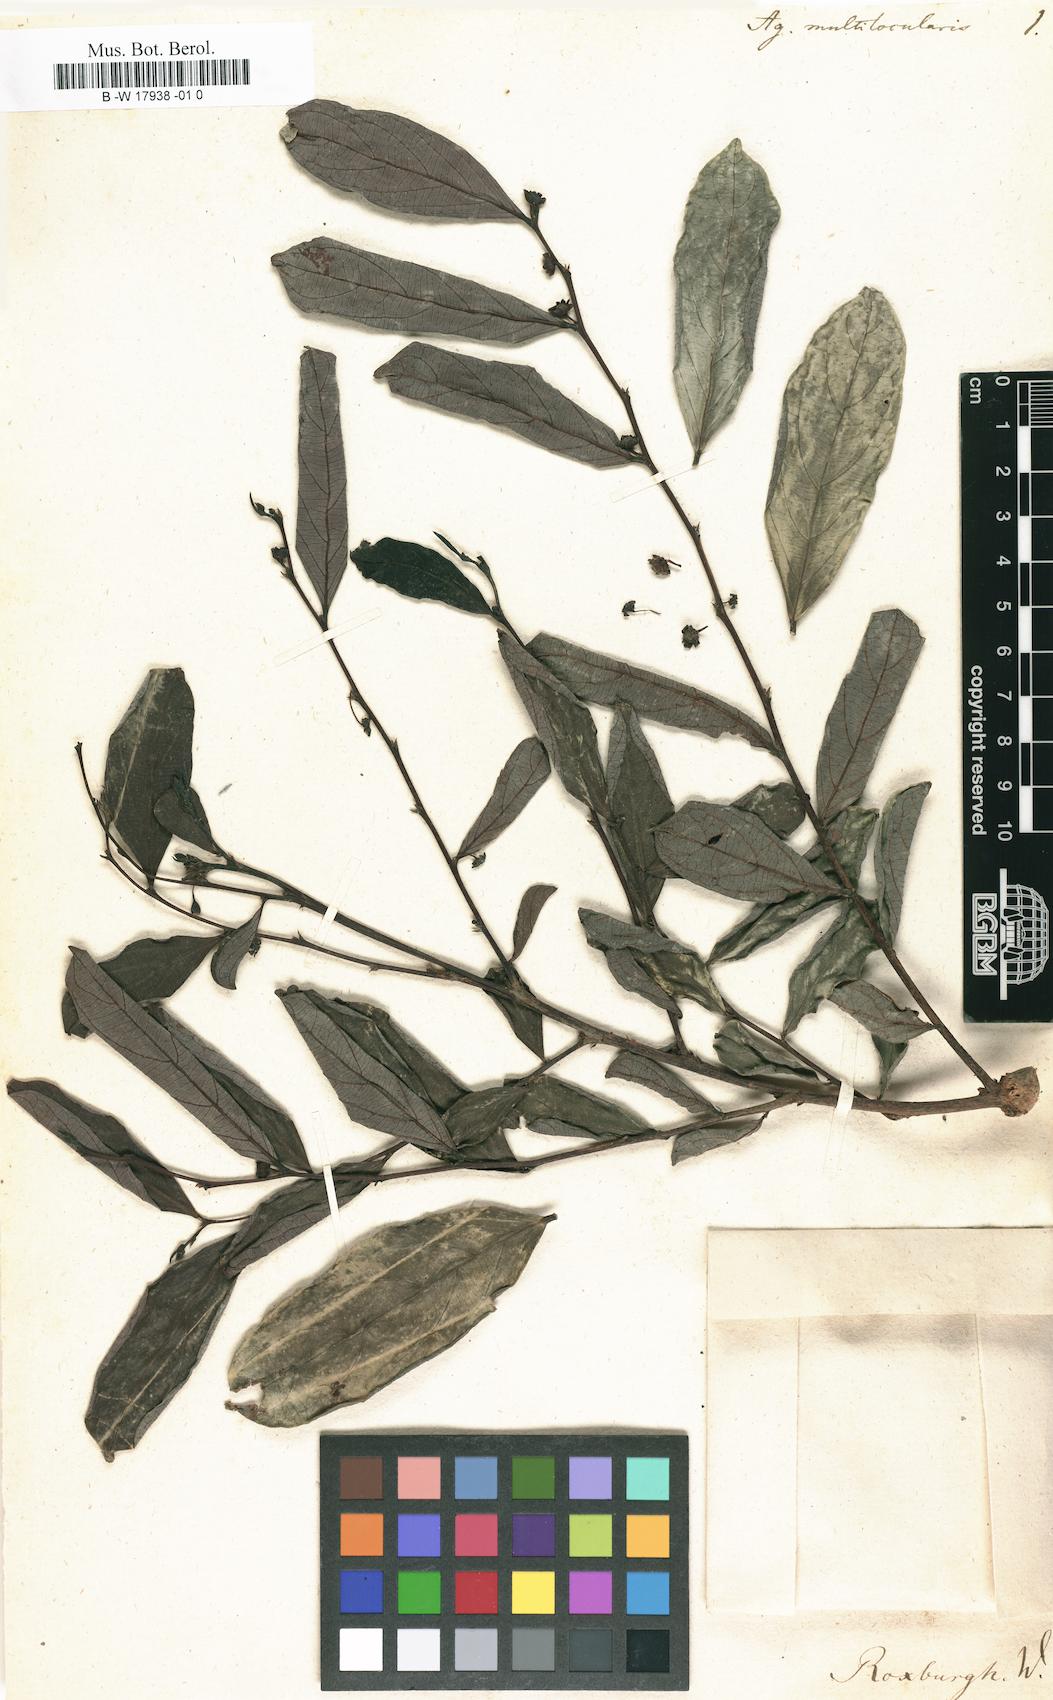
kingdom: Plantae
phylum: Tracheophyta
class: Magnoliopsida
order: Malpighiales
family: Phyllanthaceae
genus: Glochidion
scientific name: Glochidion multiloculare
